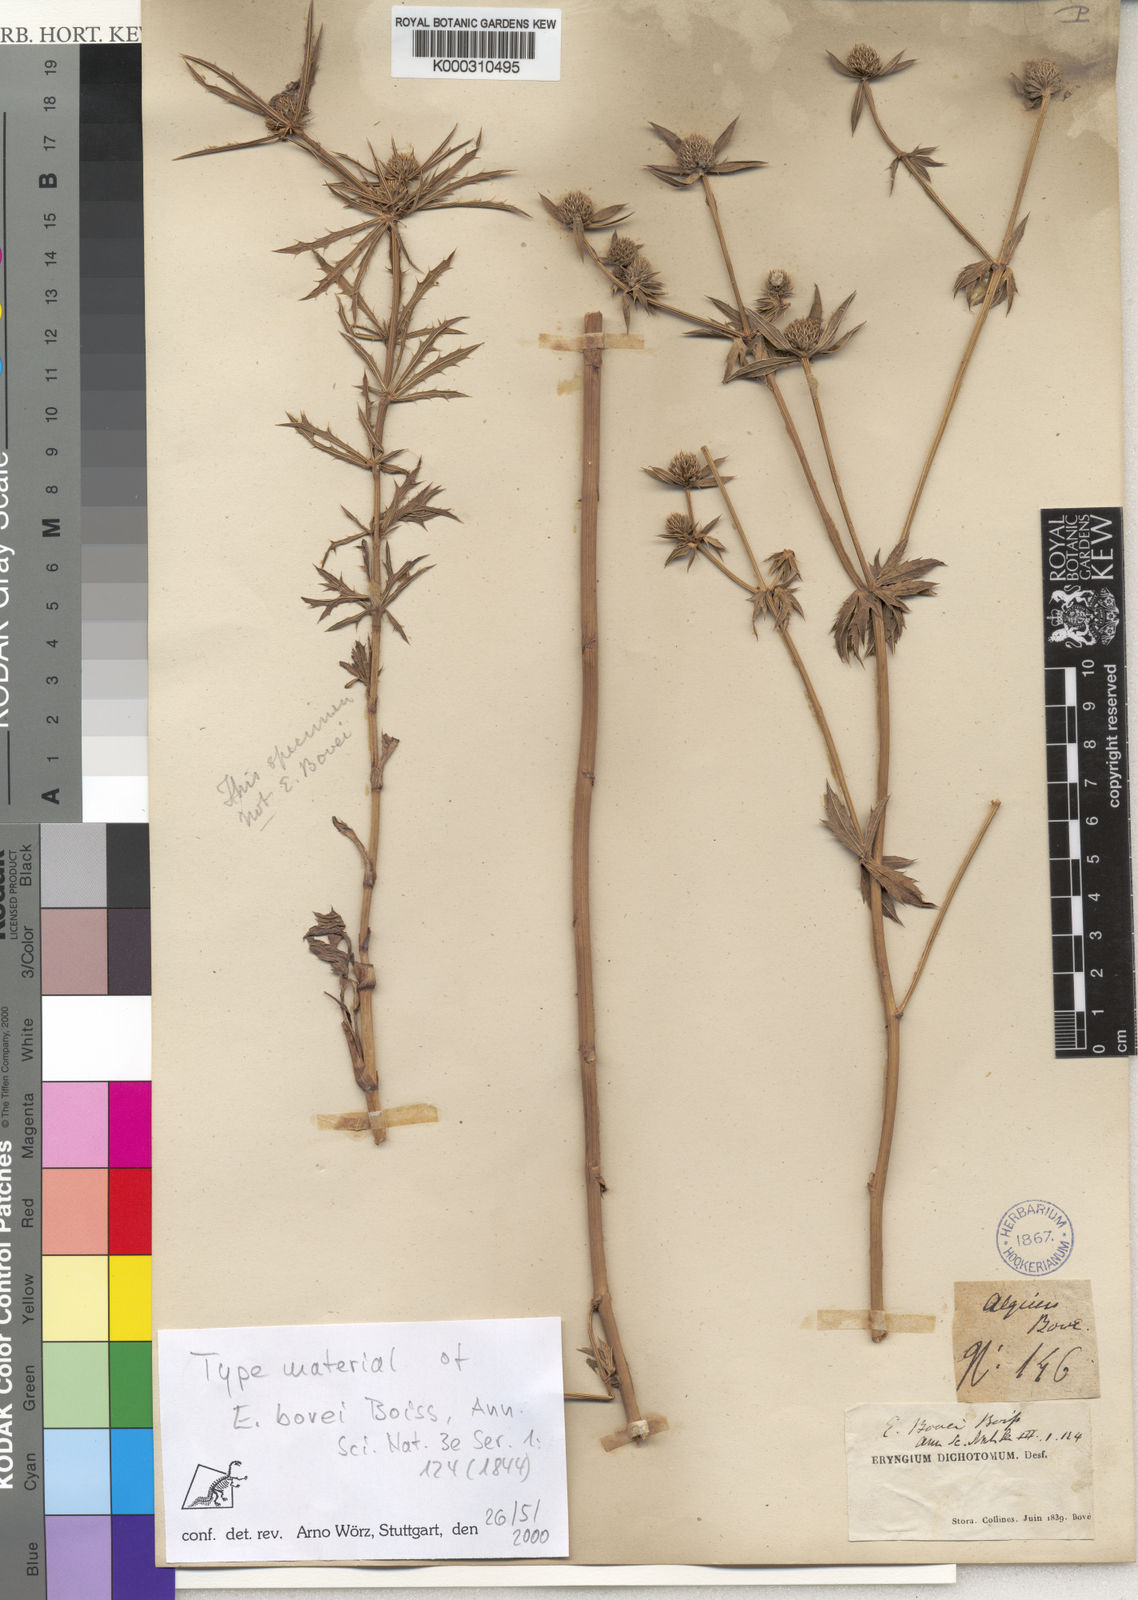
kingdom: Plantae
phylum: Tracheophyta
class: Magnoliopsida
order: Apiales
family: Apiaceae
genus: Eryngium
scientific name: Eryngium tricuspidatum
